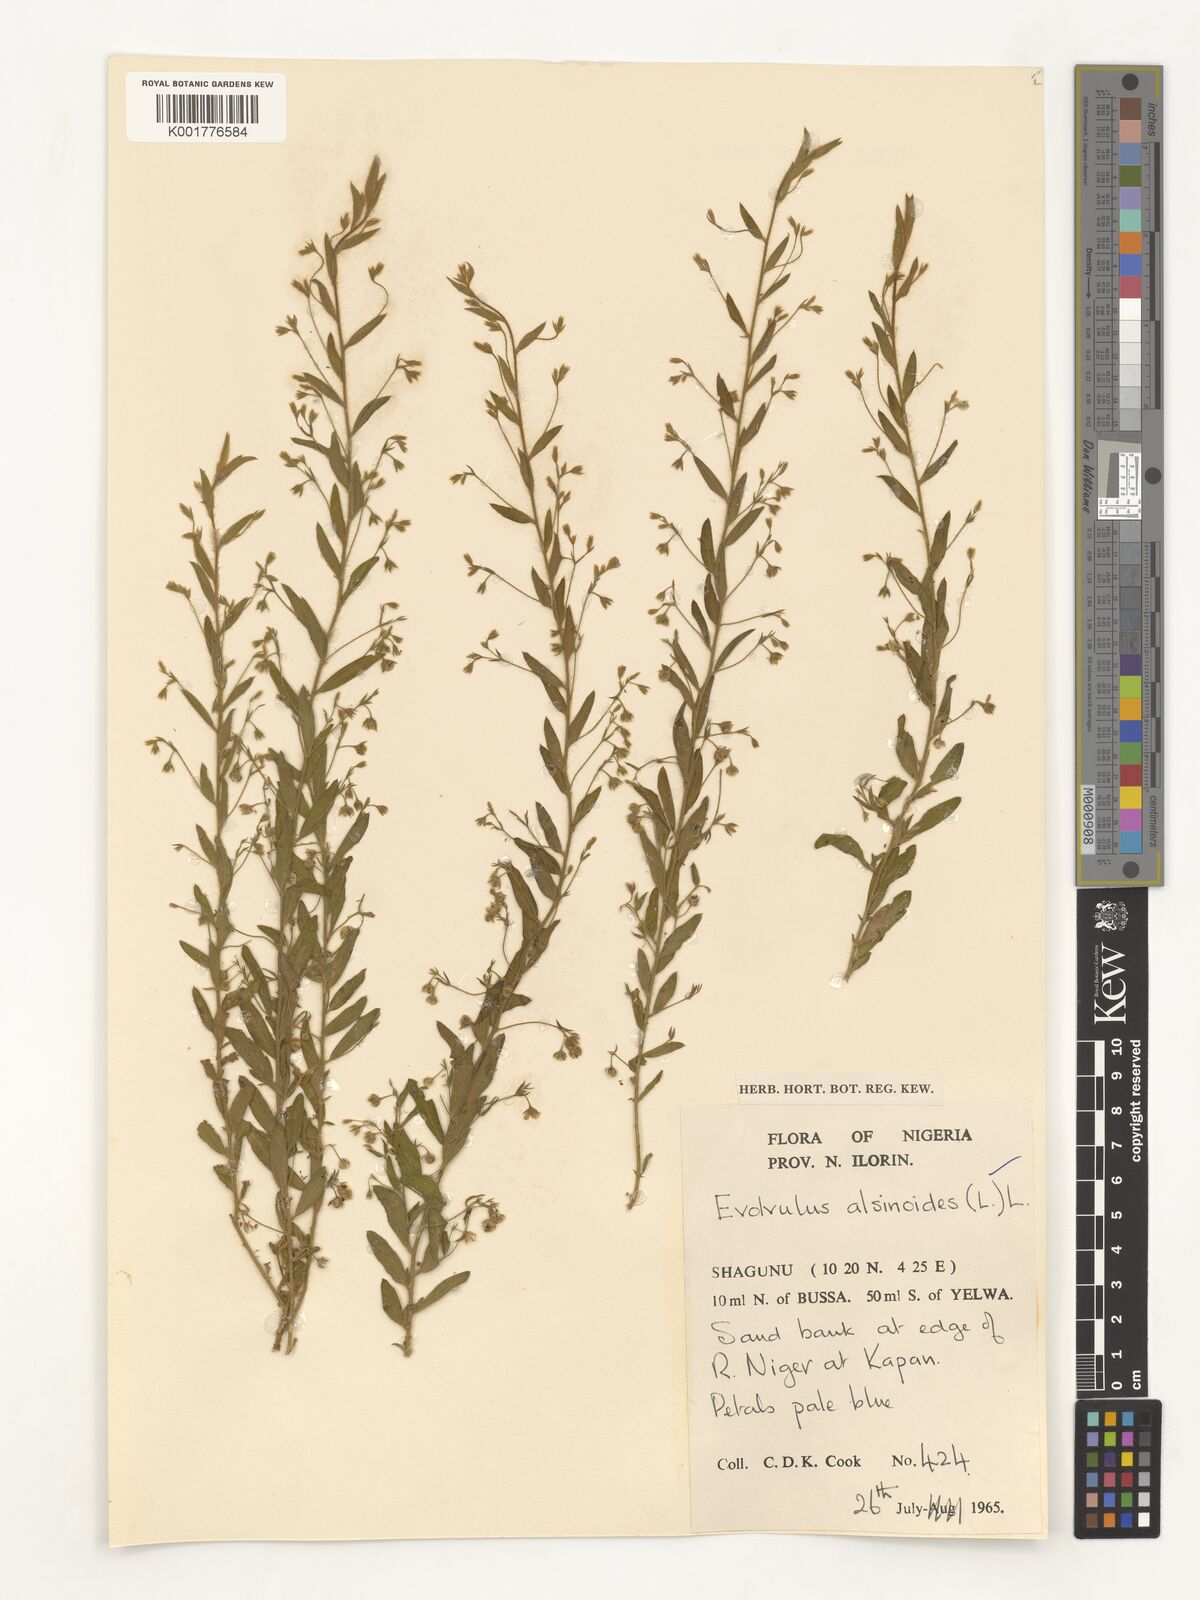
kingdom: Plantae
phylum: Tracheophyta
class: Magnoliopsida
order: Solanales
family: Convolvulaceae
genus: Evolvulus
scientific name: Evolvulus alsinoides
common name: Slender dwarf morning-glory
